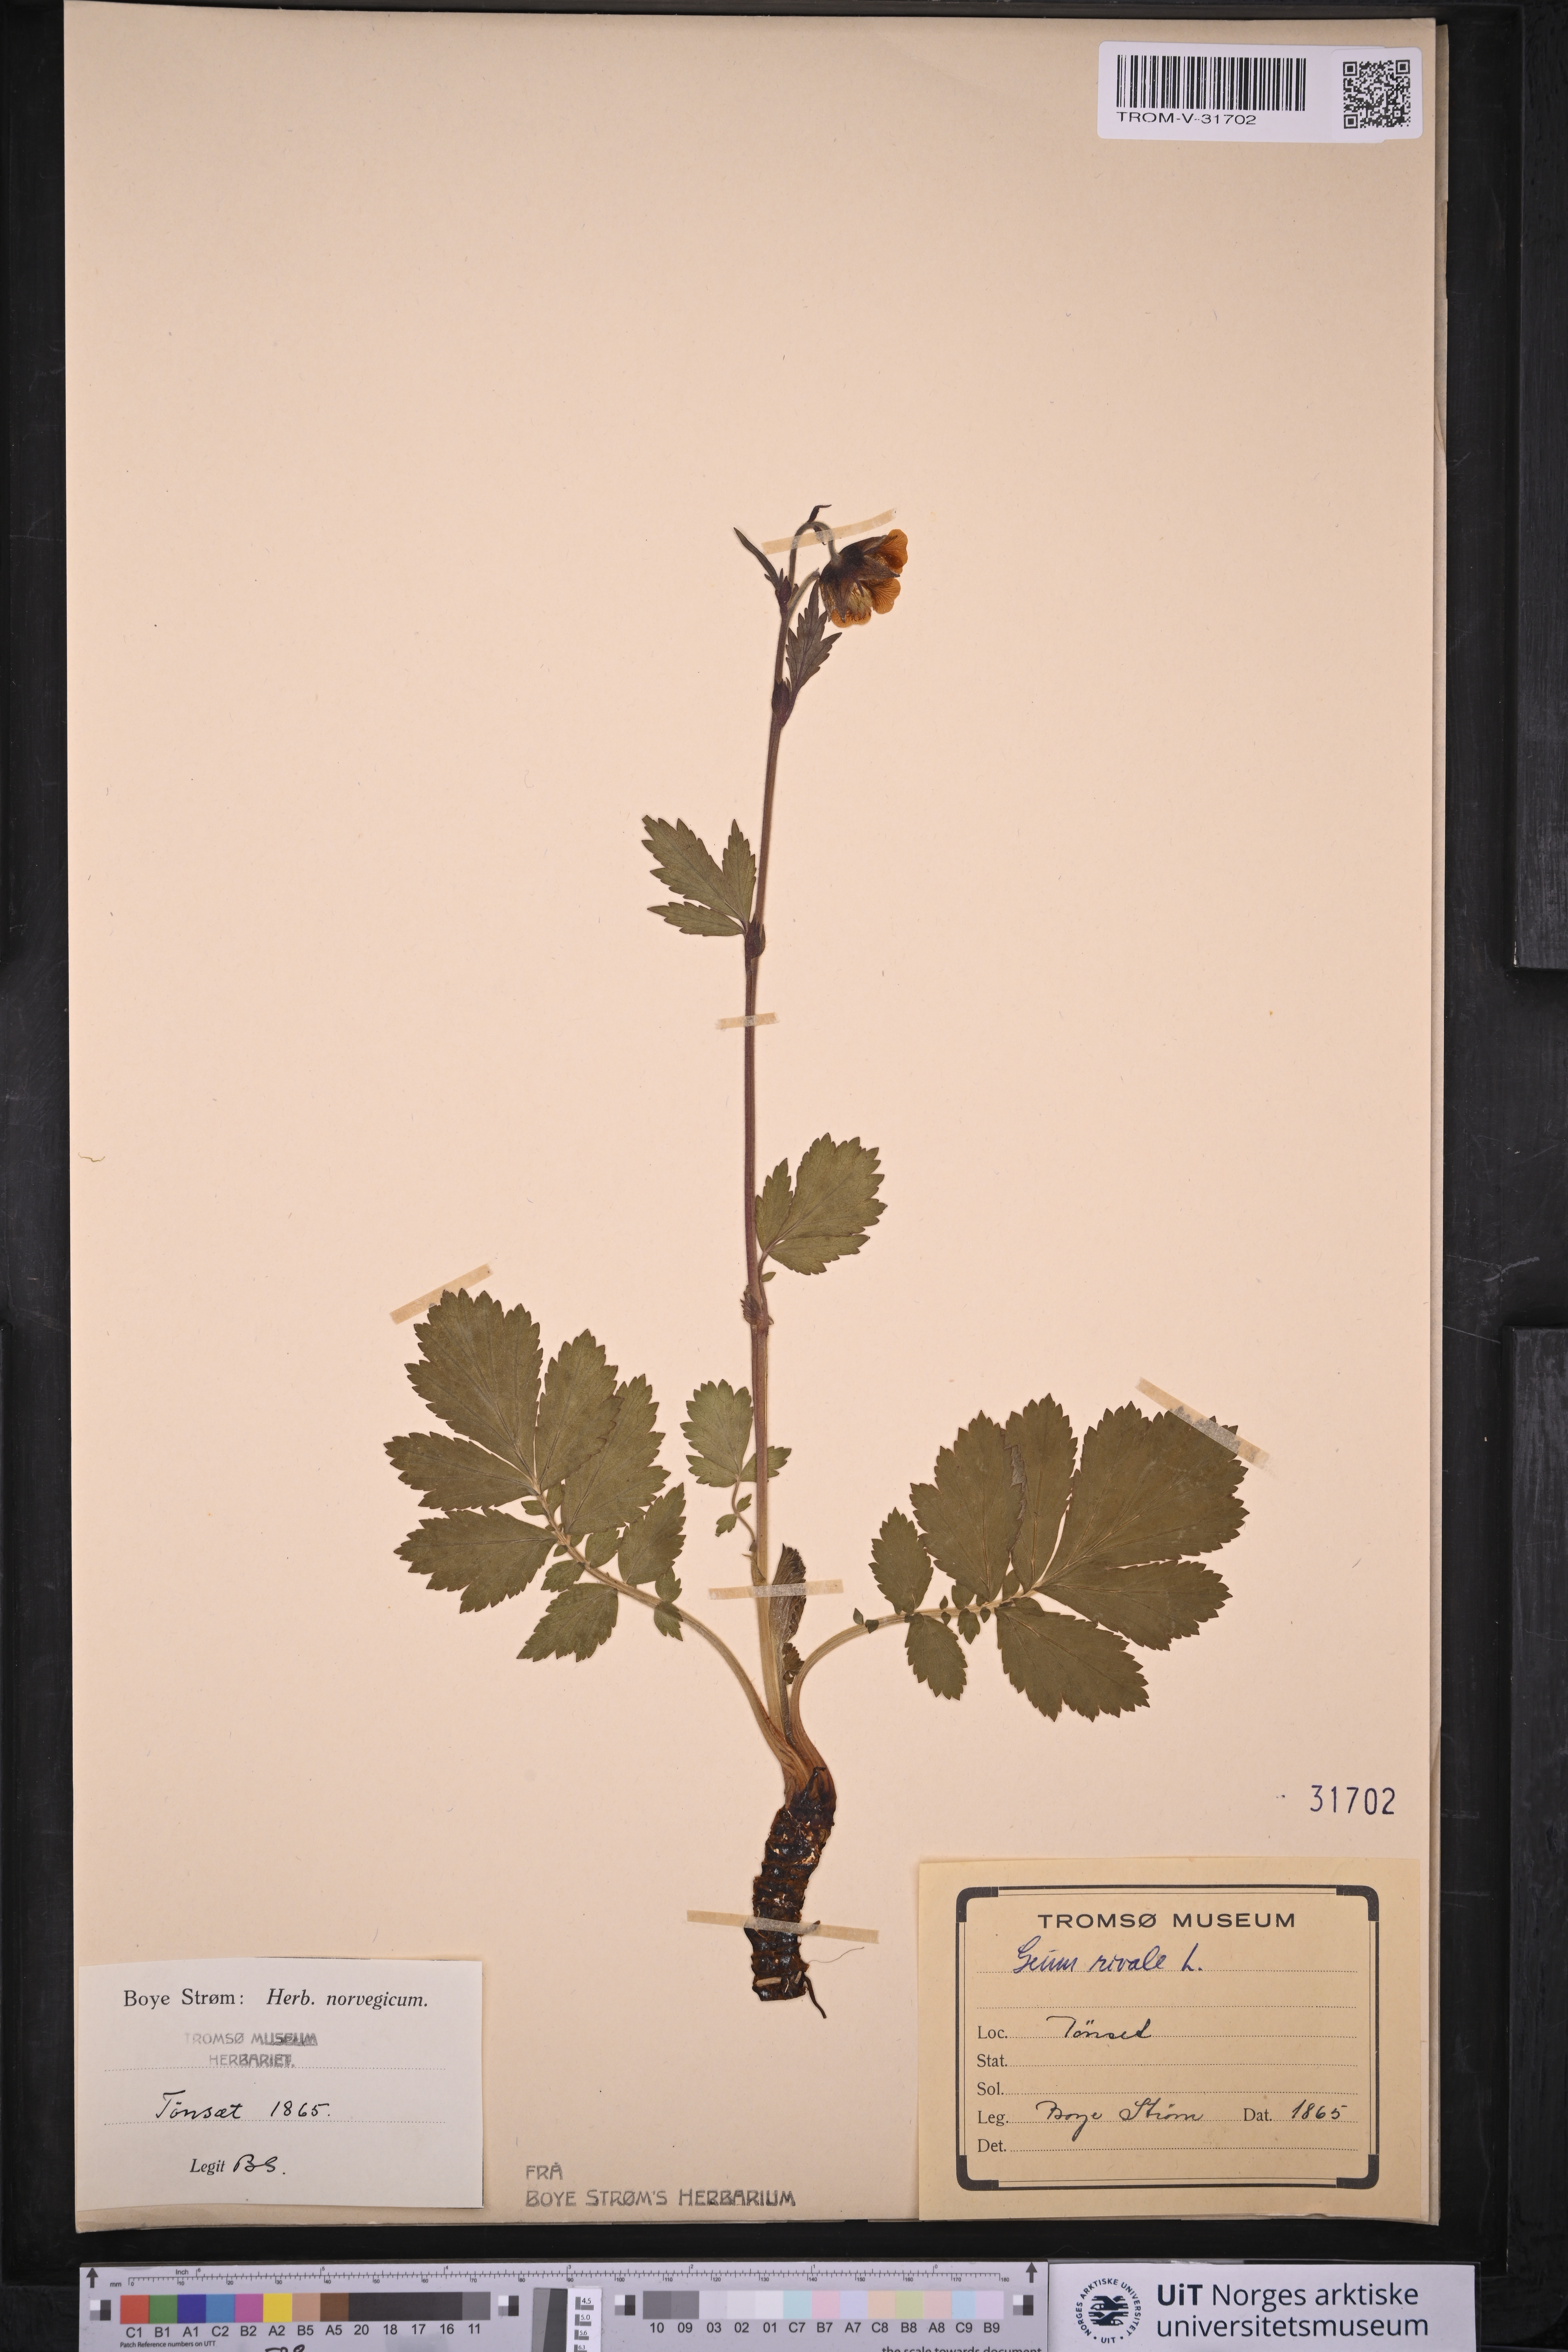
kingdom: Plantae
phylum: Tracheophyta
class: Magnoliopsida
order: Rosales
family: Rosaceae
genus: Geum
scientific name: Geum rivale
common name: Water avens
